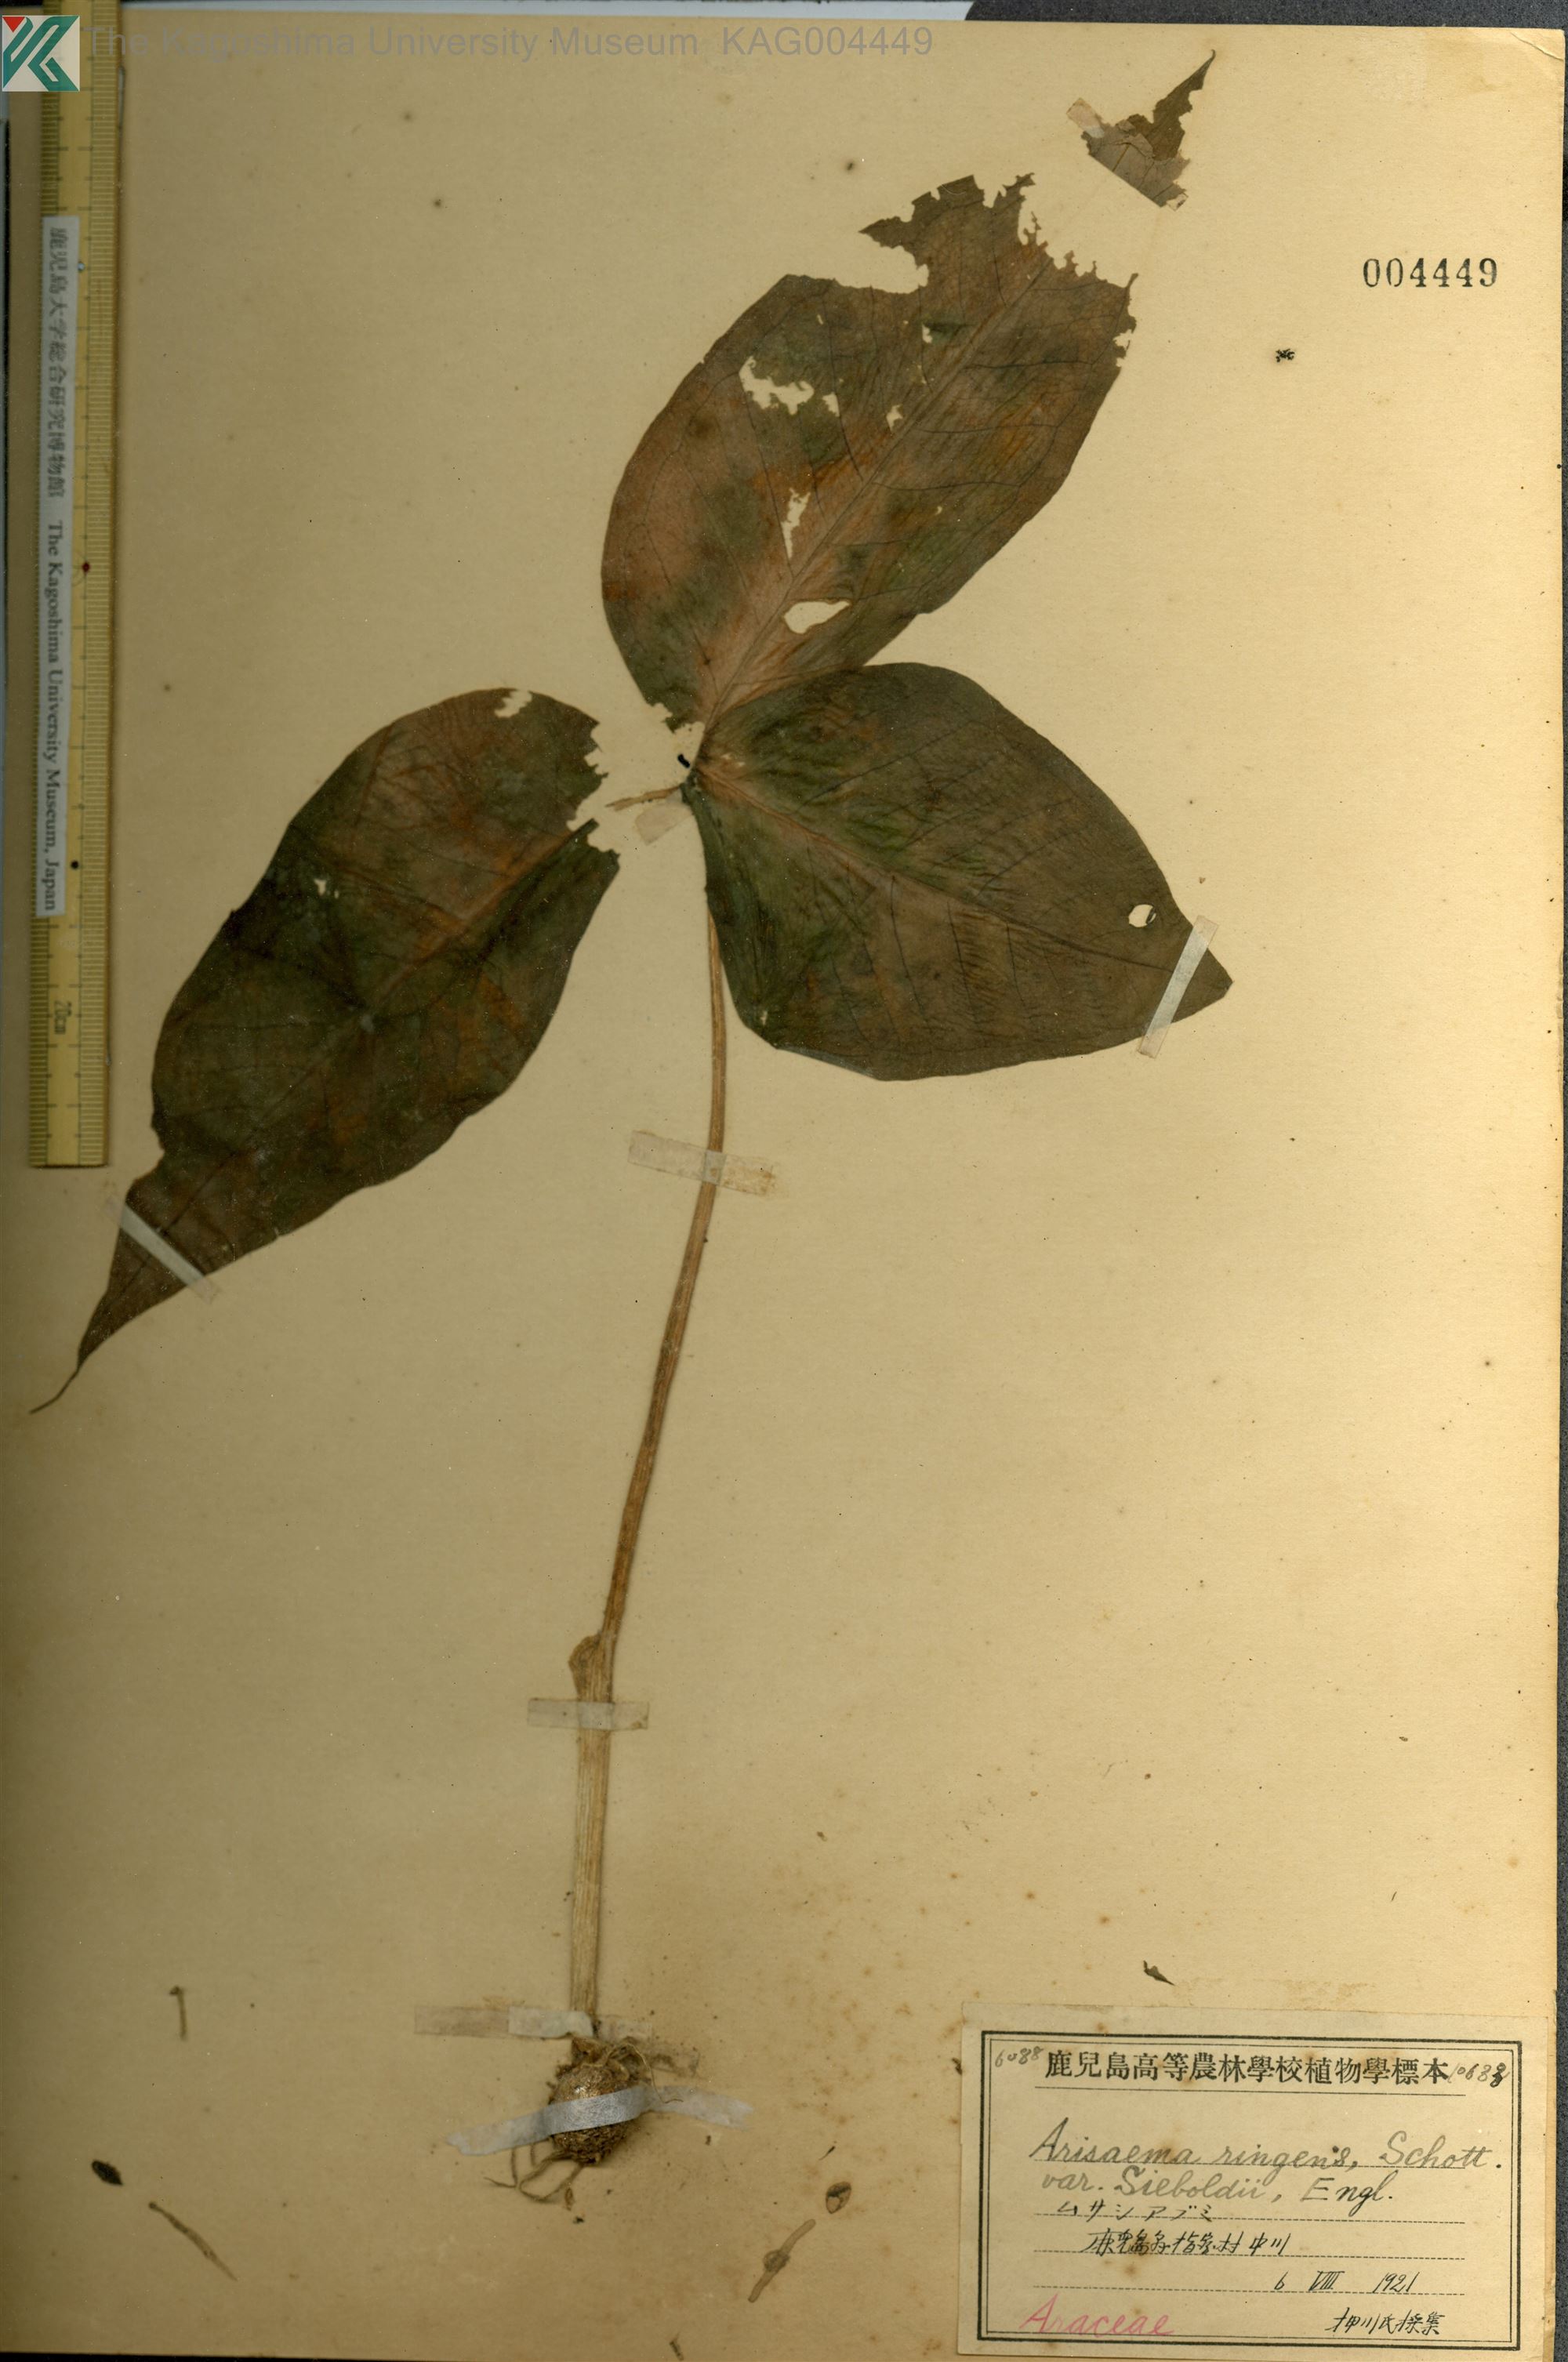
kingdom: Plantae
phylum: Tracheophyta
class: Liliopsida
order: Alismatales
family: Araceae
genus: Arisaema
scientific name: Arisaema ringens
